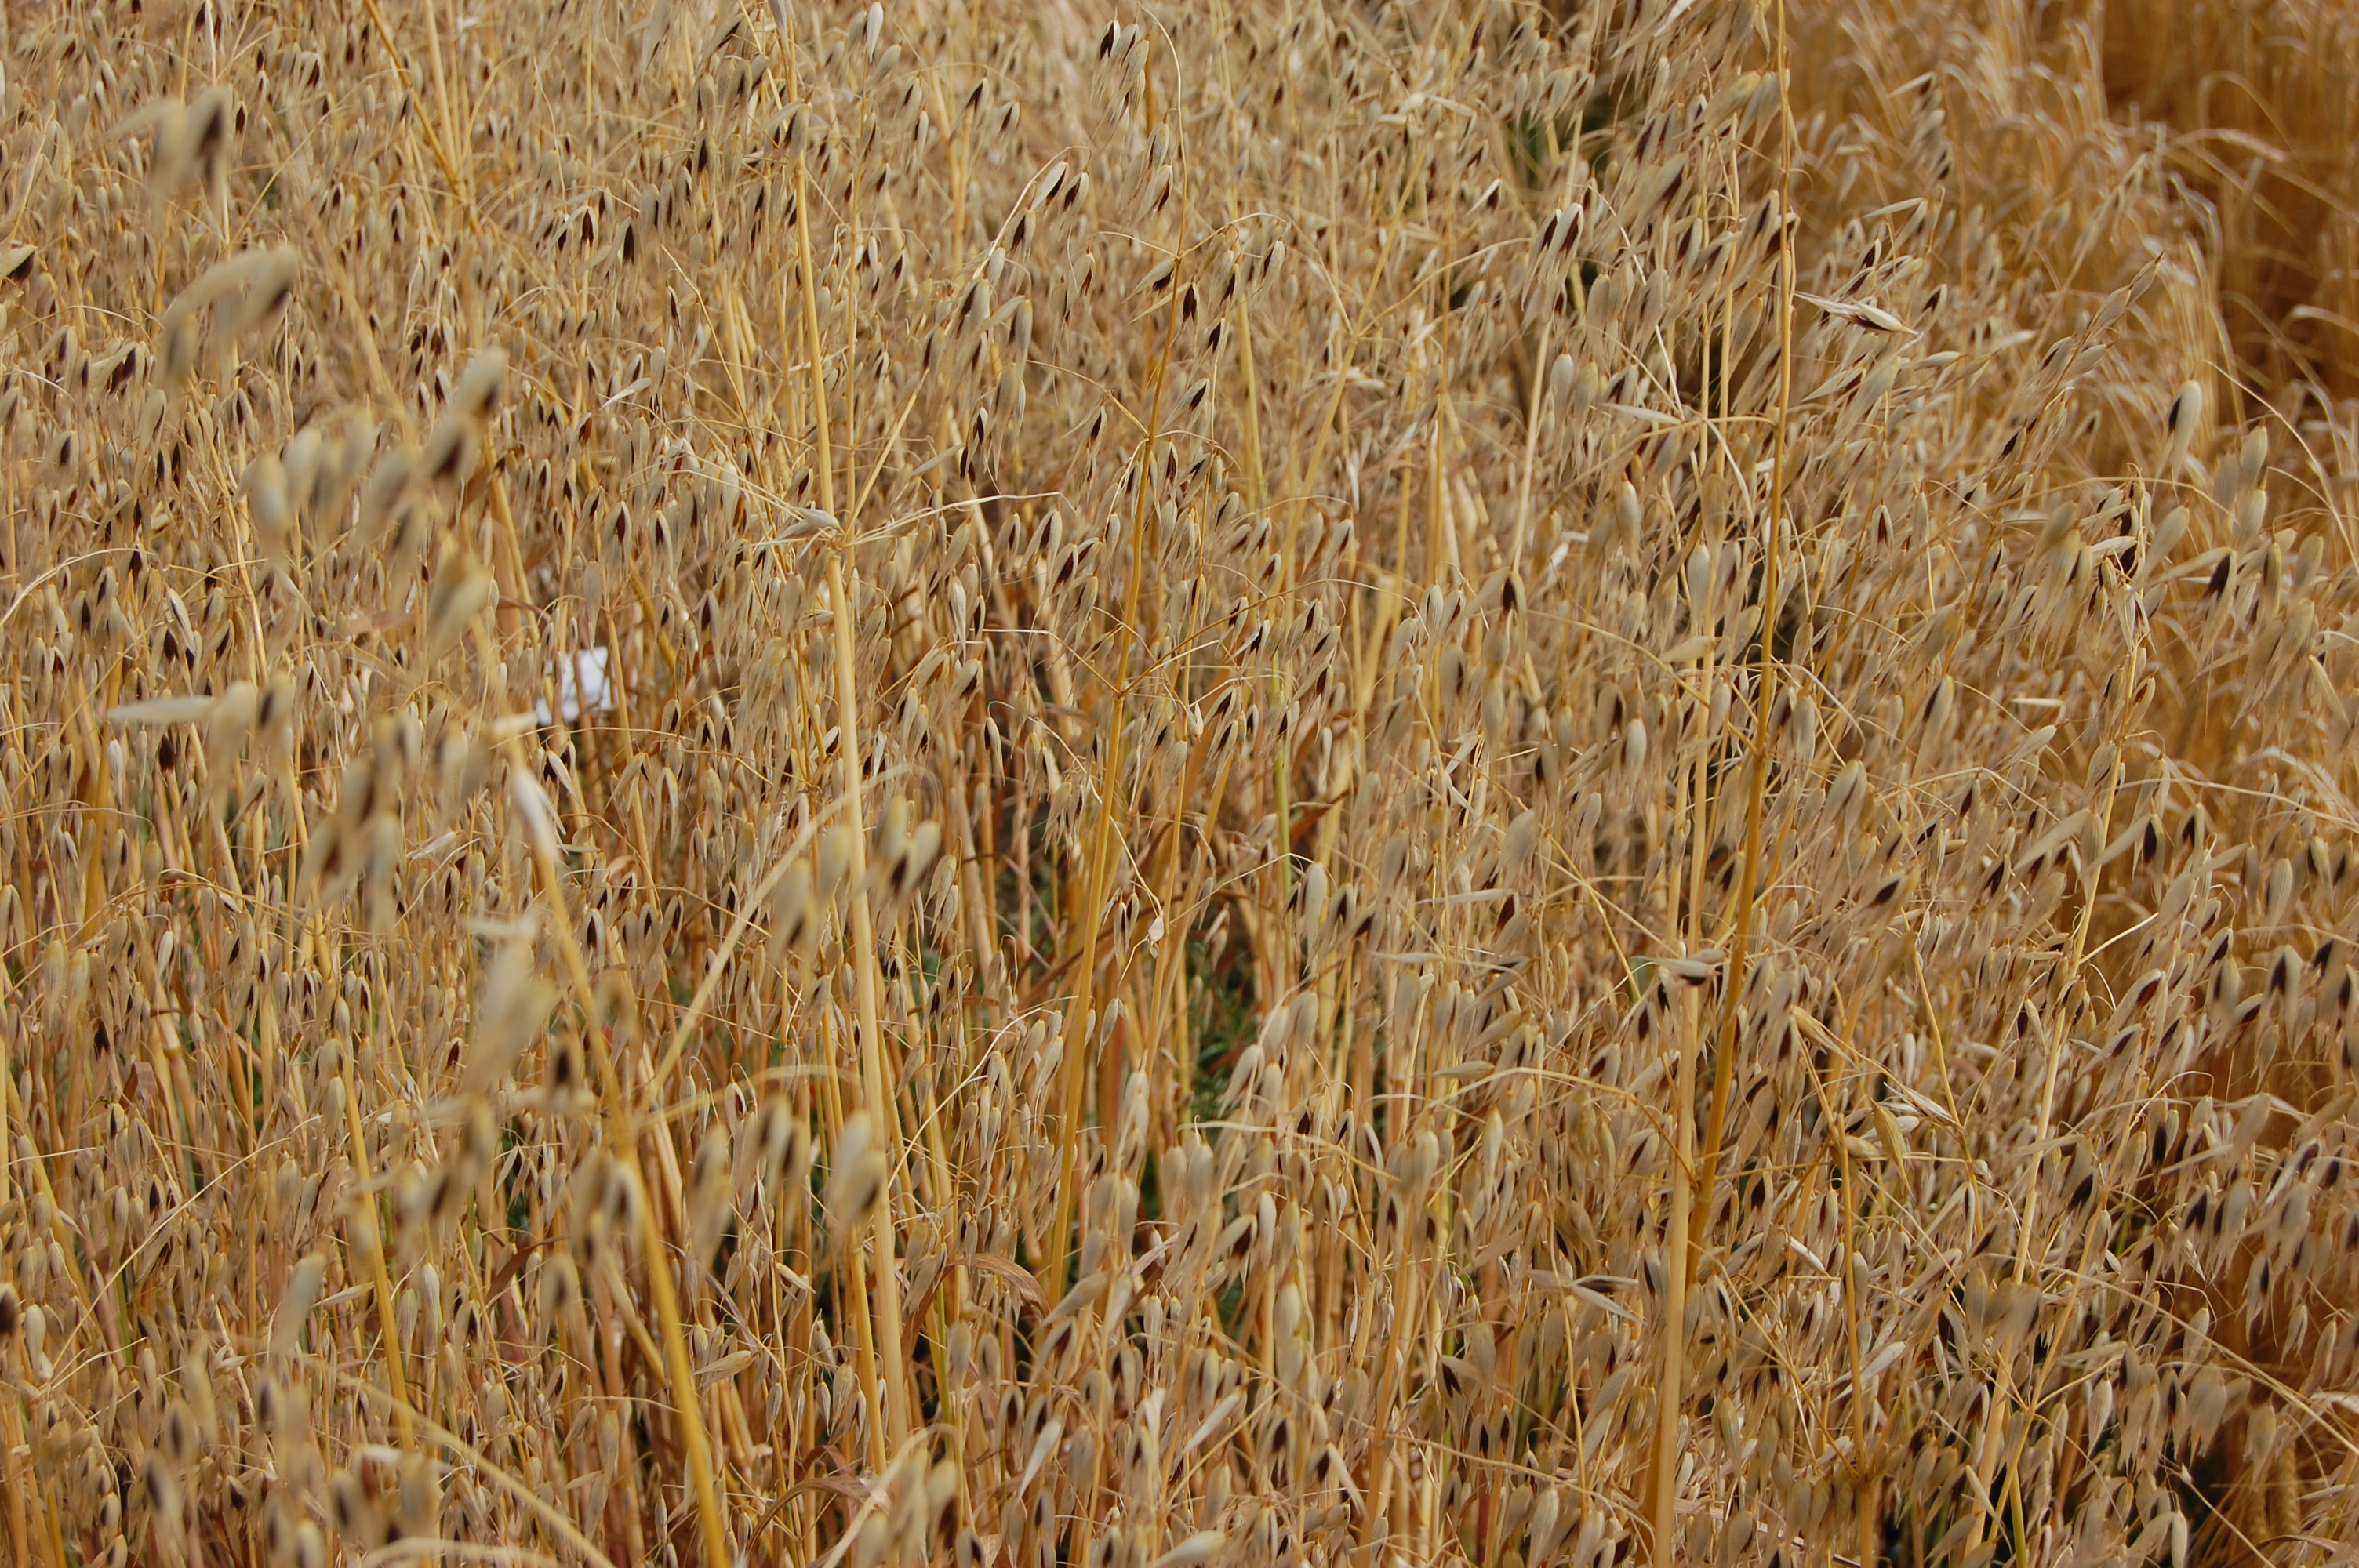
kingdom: Plantae
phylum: Tracheophyta
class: Liliopsida
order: Poales
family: Poaceae
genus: Avena
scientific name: Avena sativa
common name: Oat
